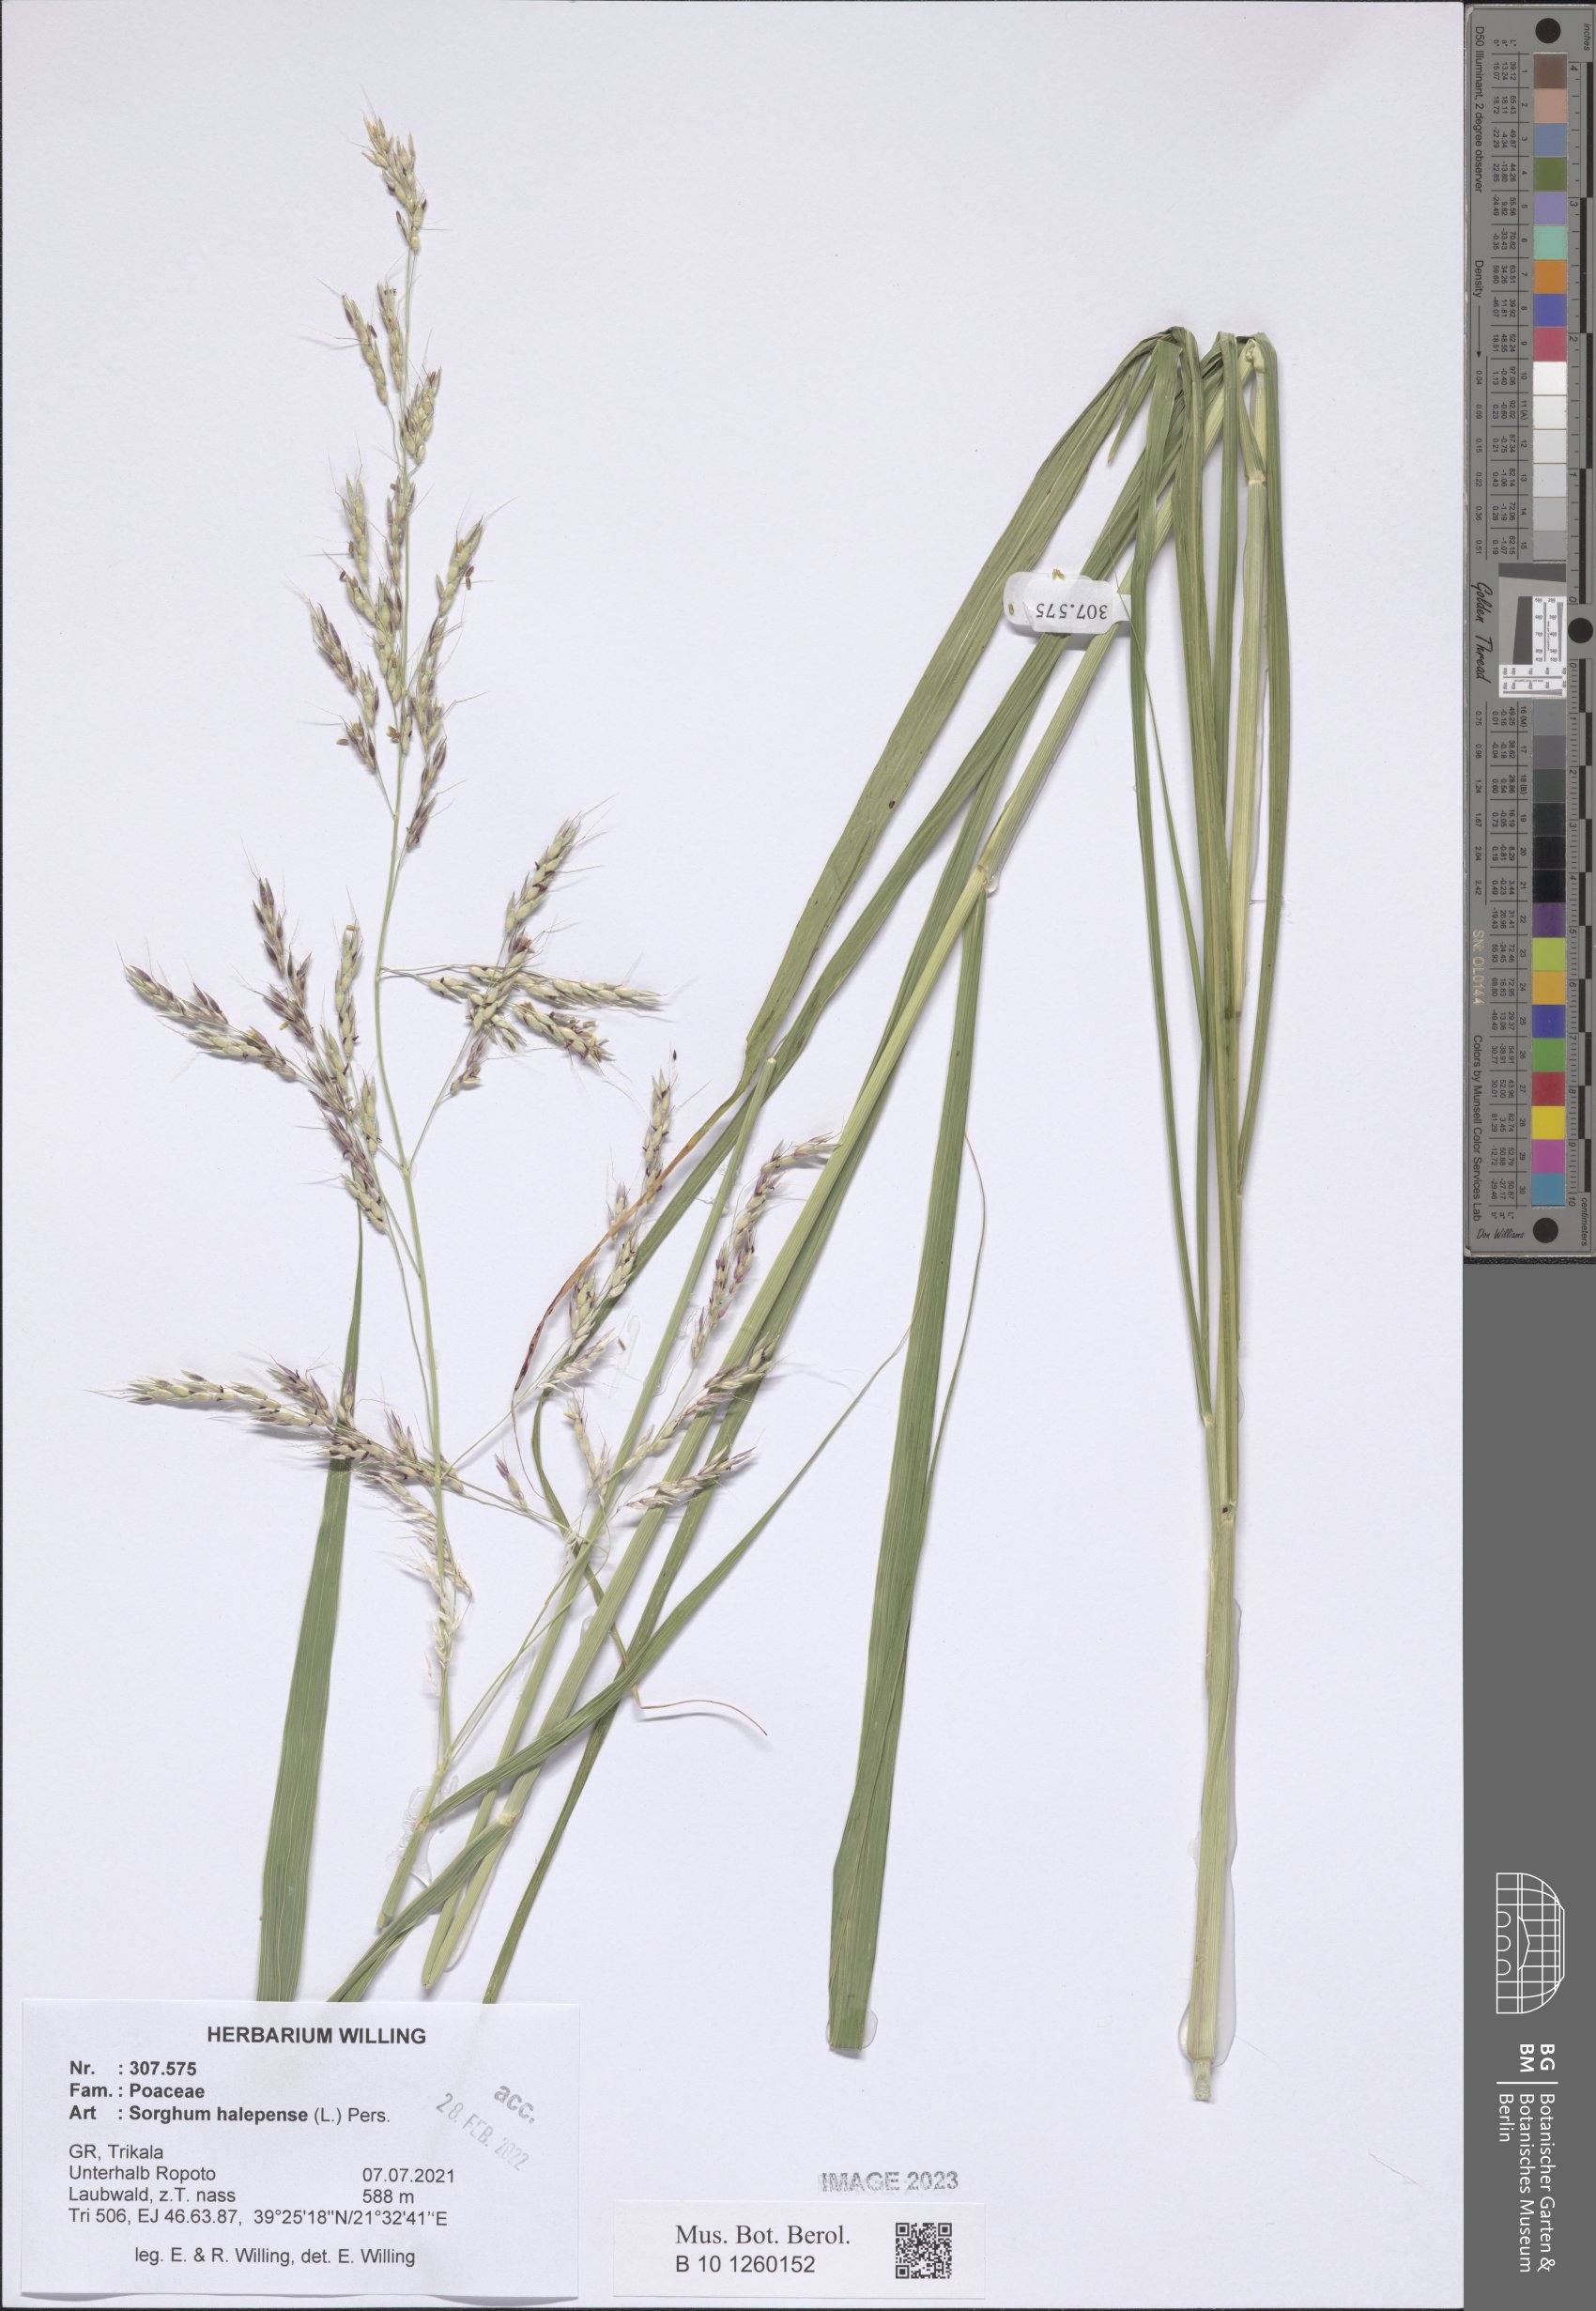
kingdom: Plantae
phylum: Tracheophyta
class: Liliopsida
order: Poales
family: Poaceae
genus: Sorghum
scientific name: Sorghum halepense
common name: Johnson-grass
